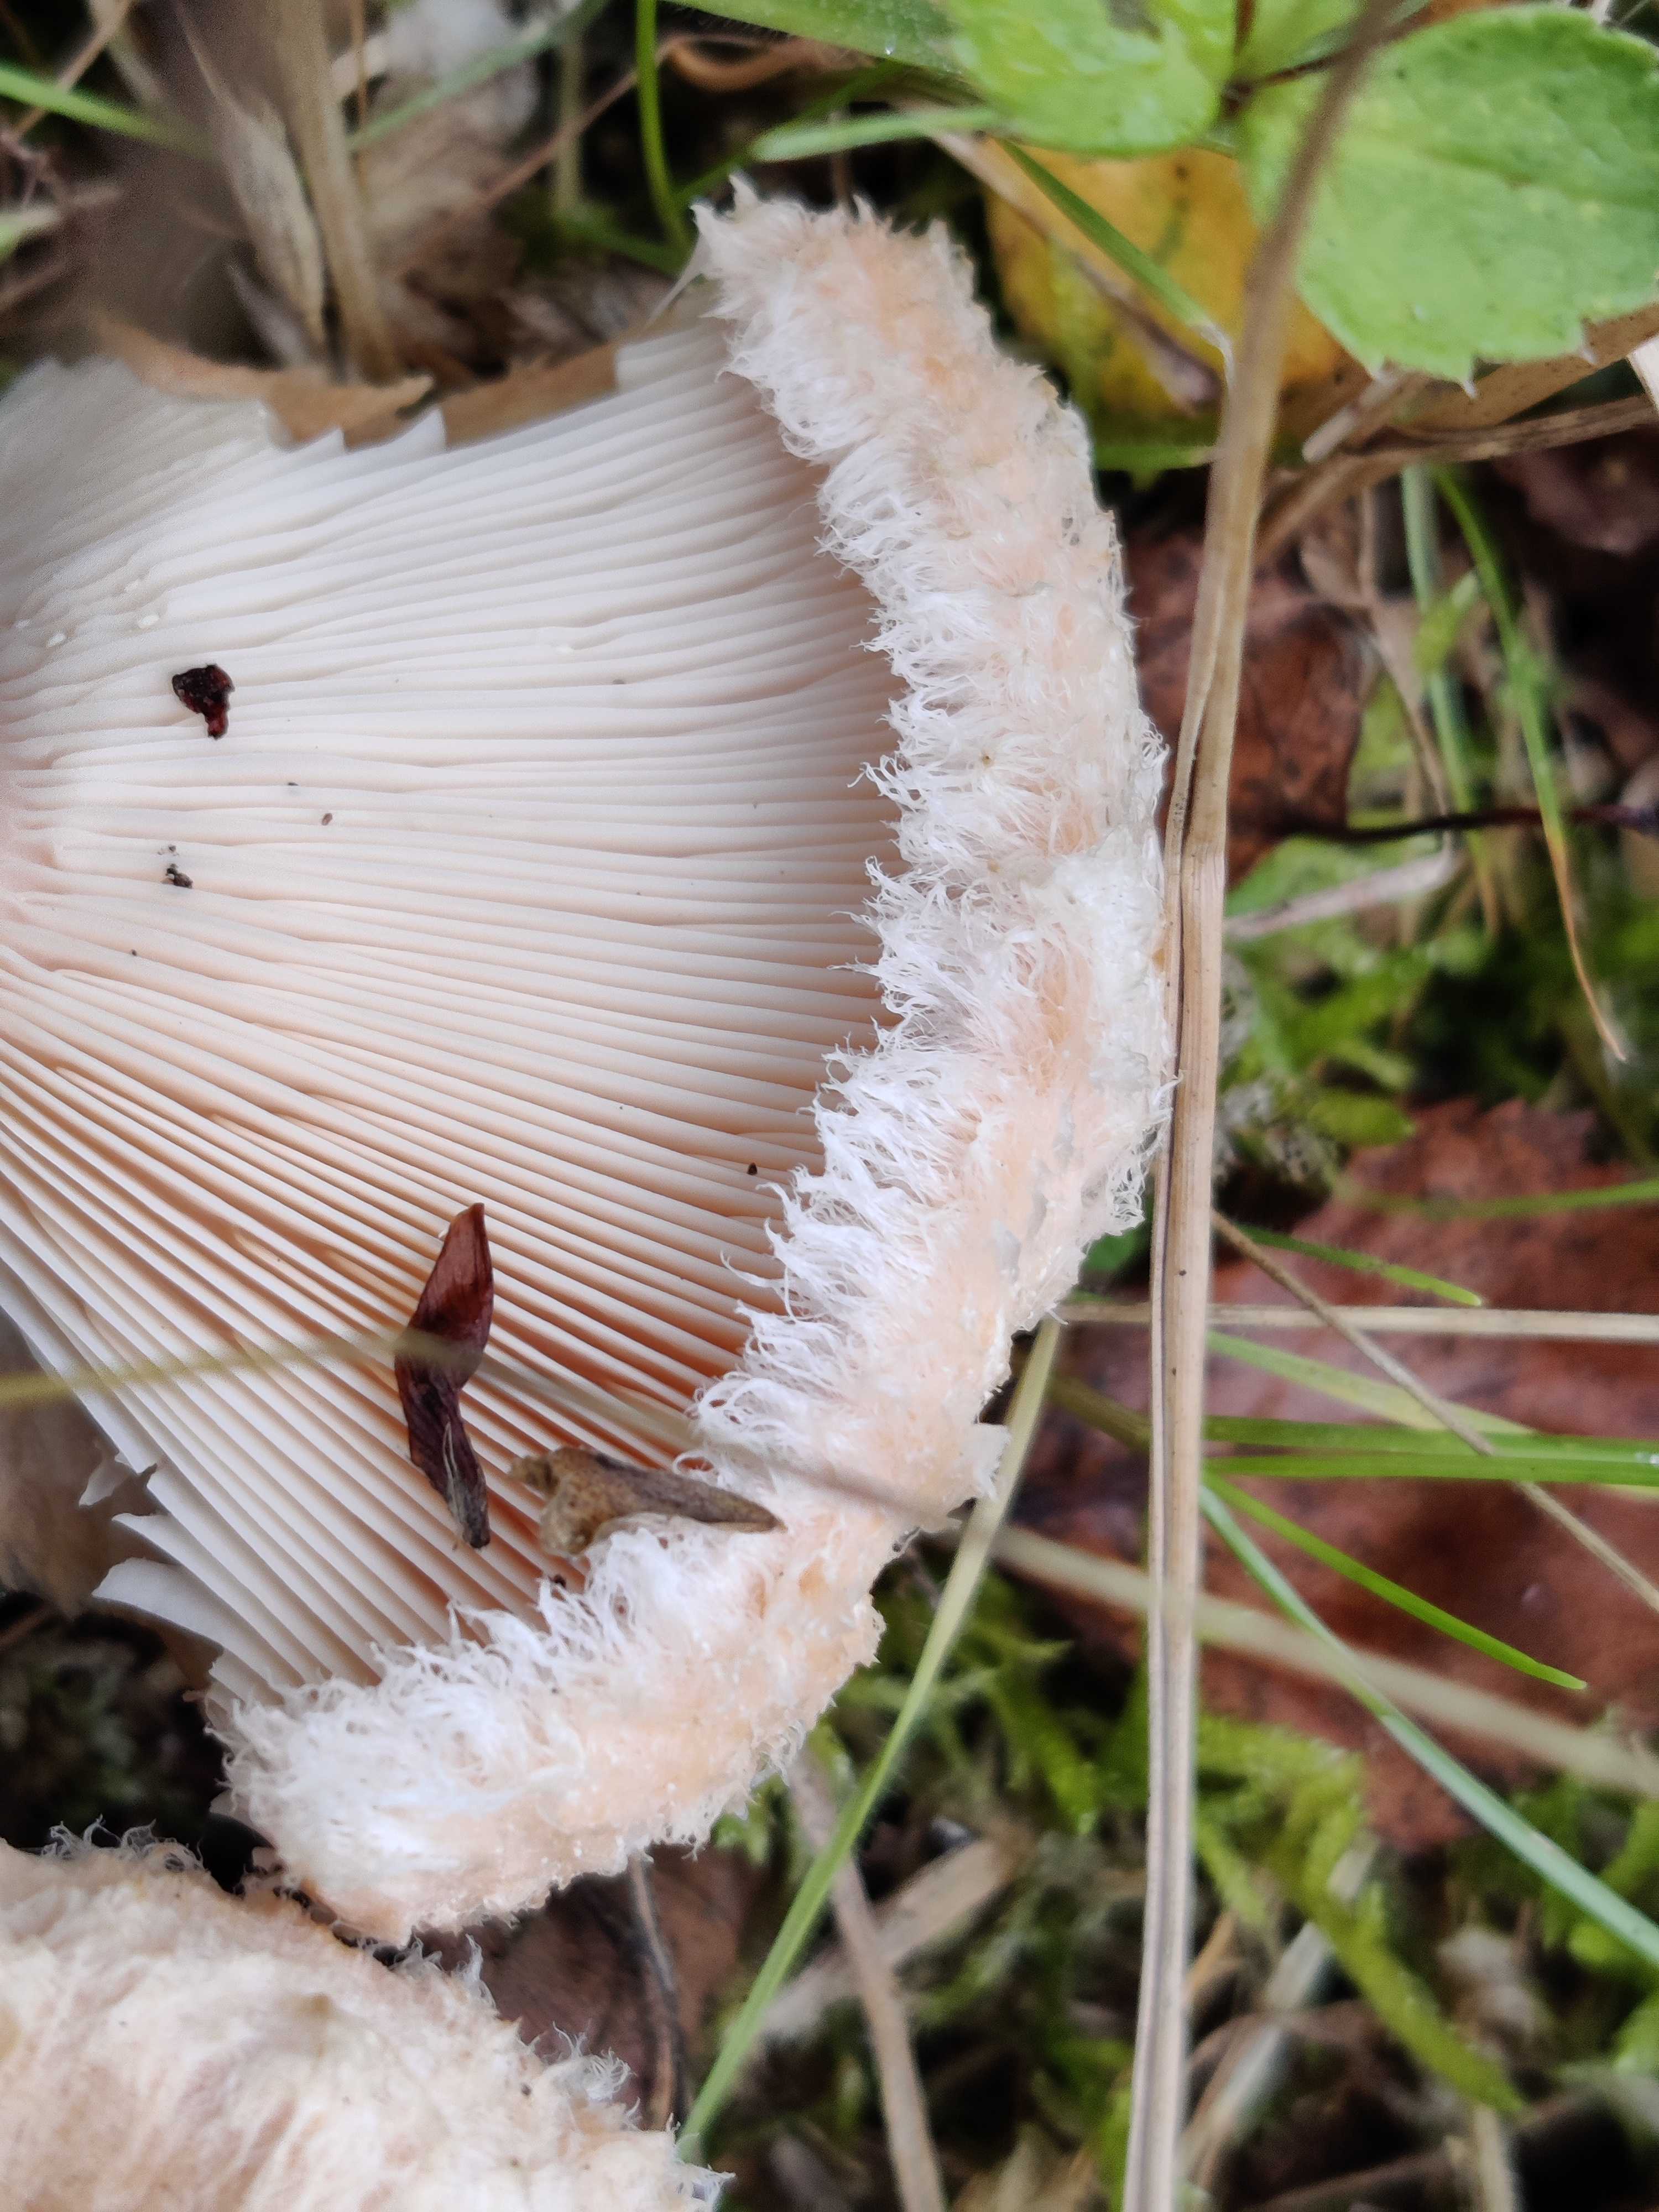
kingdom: Fungi
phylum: Basidiomycota
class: Agaricomycetes
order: Russulales
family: Russulaceae
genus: Lactarius
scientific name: Lactarius torminosus
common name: skægget mælkehat
